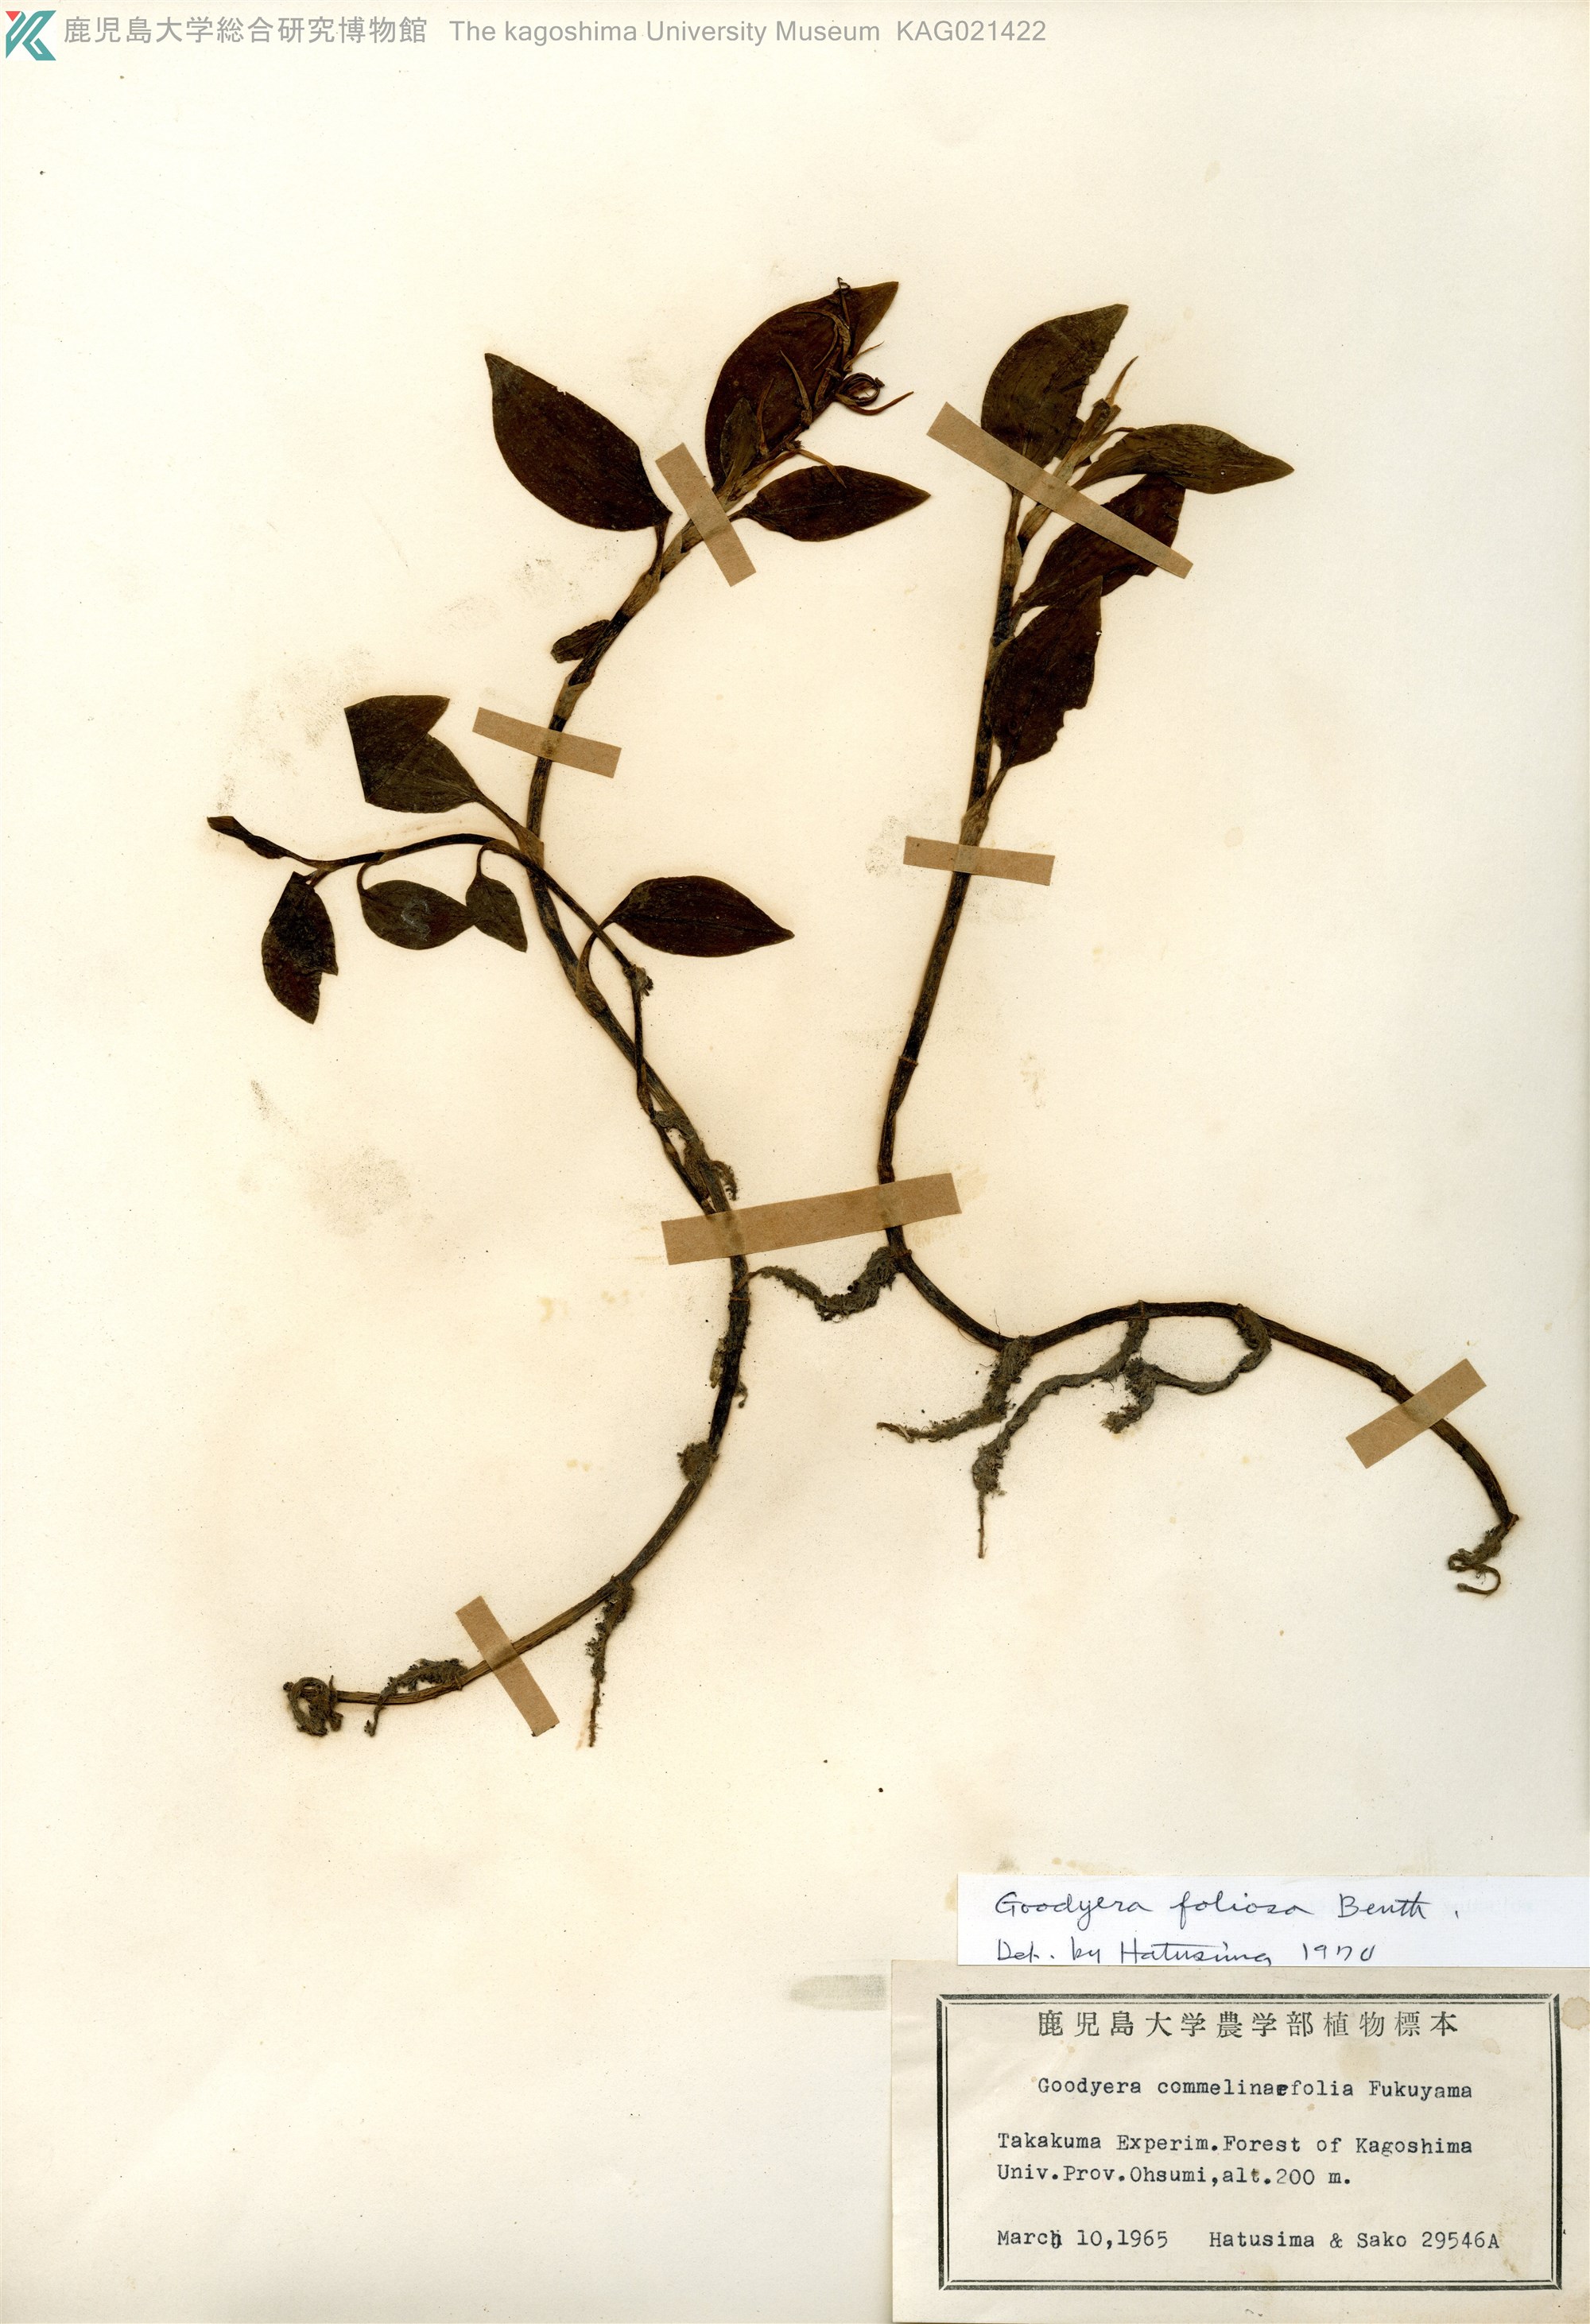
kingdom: Plantae
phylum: Tracheophyta
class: Liliopsida
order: Asparagales
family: Orchidaceae
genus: Goodyera
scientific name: Goodyera foliosa
